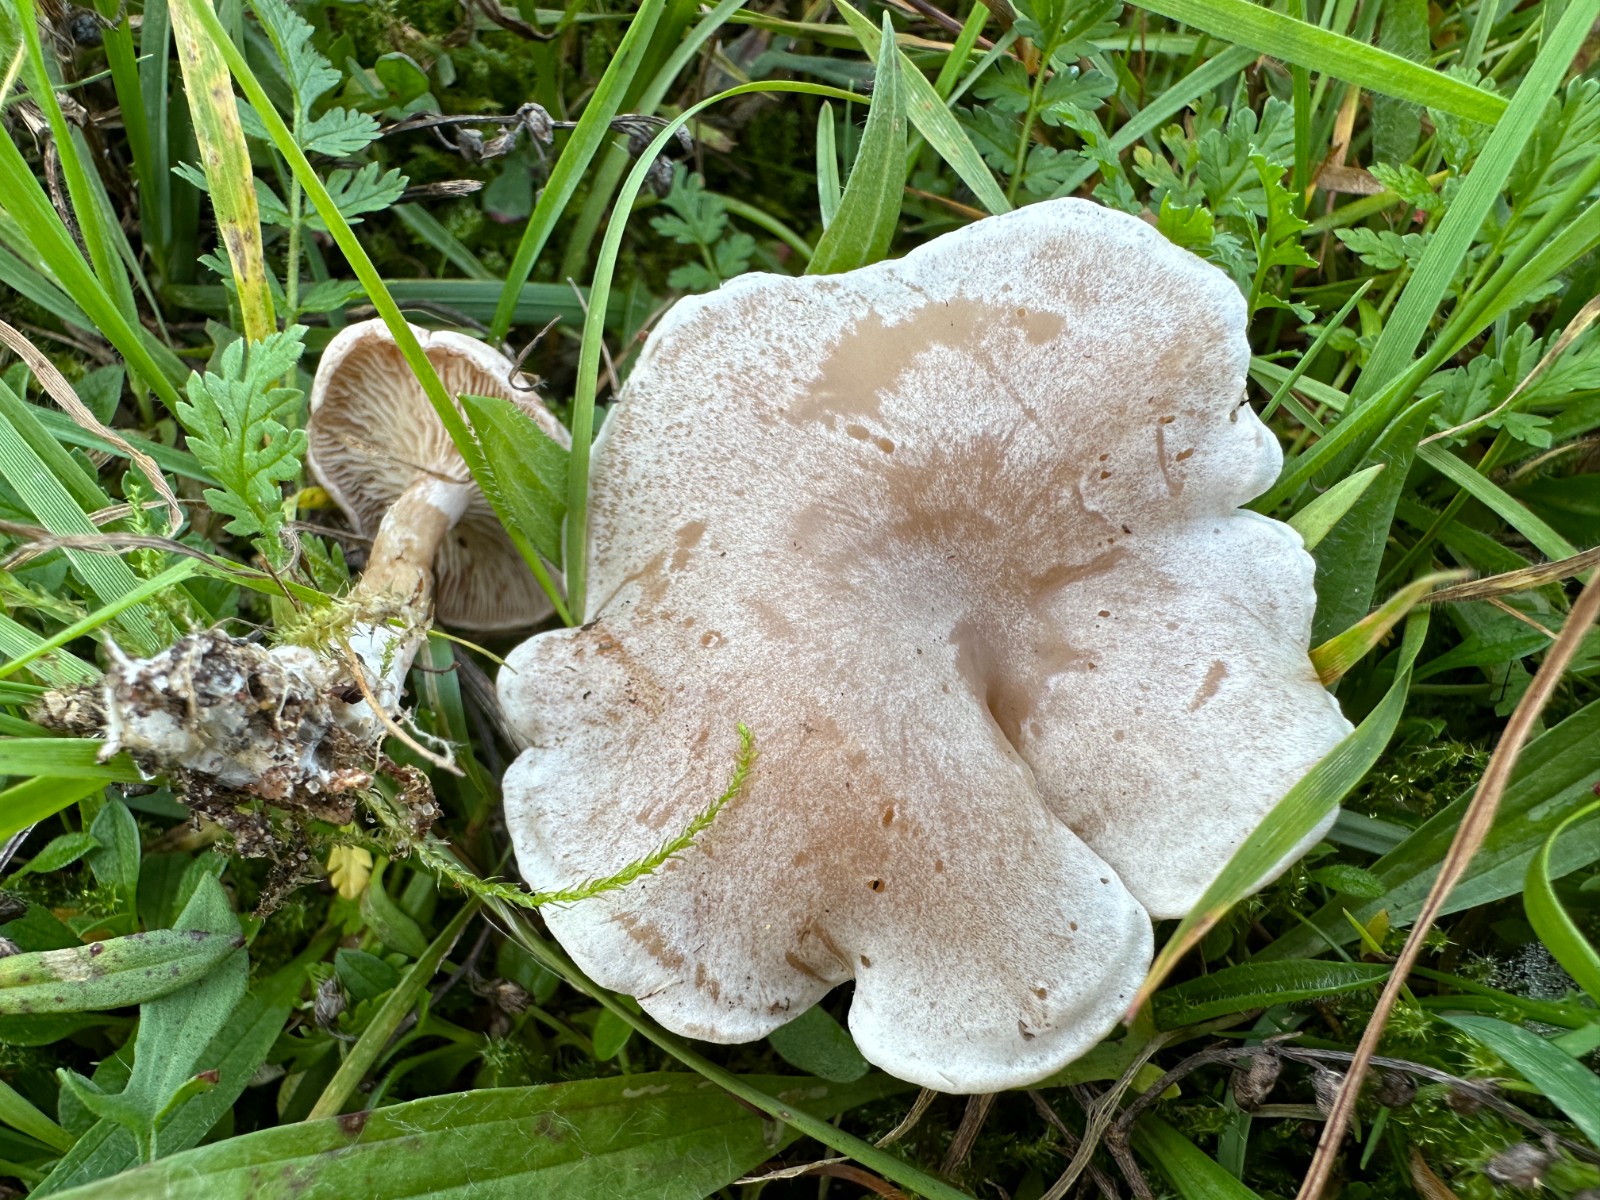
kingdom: Fungi
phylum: Basidiomycota
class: Agaricomycetes
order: Agaricales
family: Tricholomataceae
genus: Clitocybe
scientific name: Clitocybe rivulosa
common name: eng-tragthat
